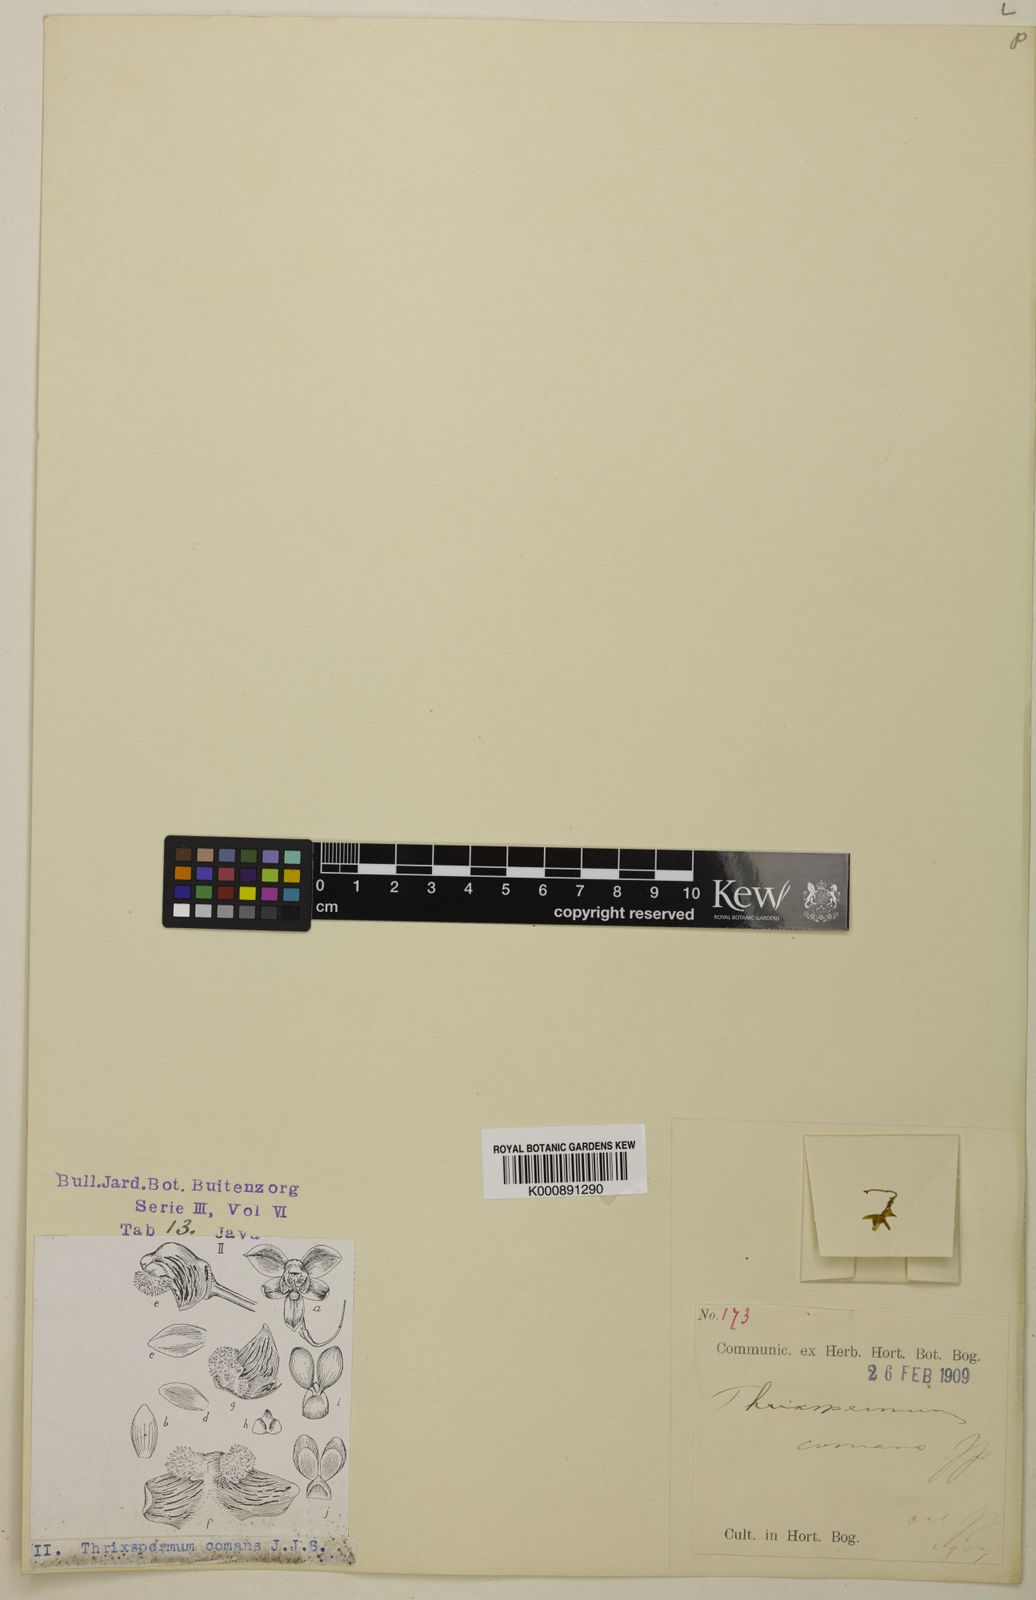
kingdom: Plantae
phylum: Tracheophyta
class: Liliopsida
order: Asparagales
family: Orchidaceae
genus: Thrixspermum
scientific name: Thrixspermum merguense
